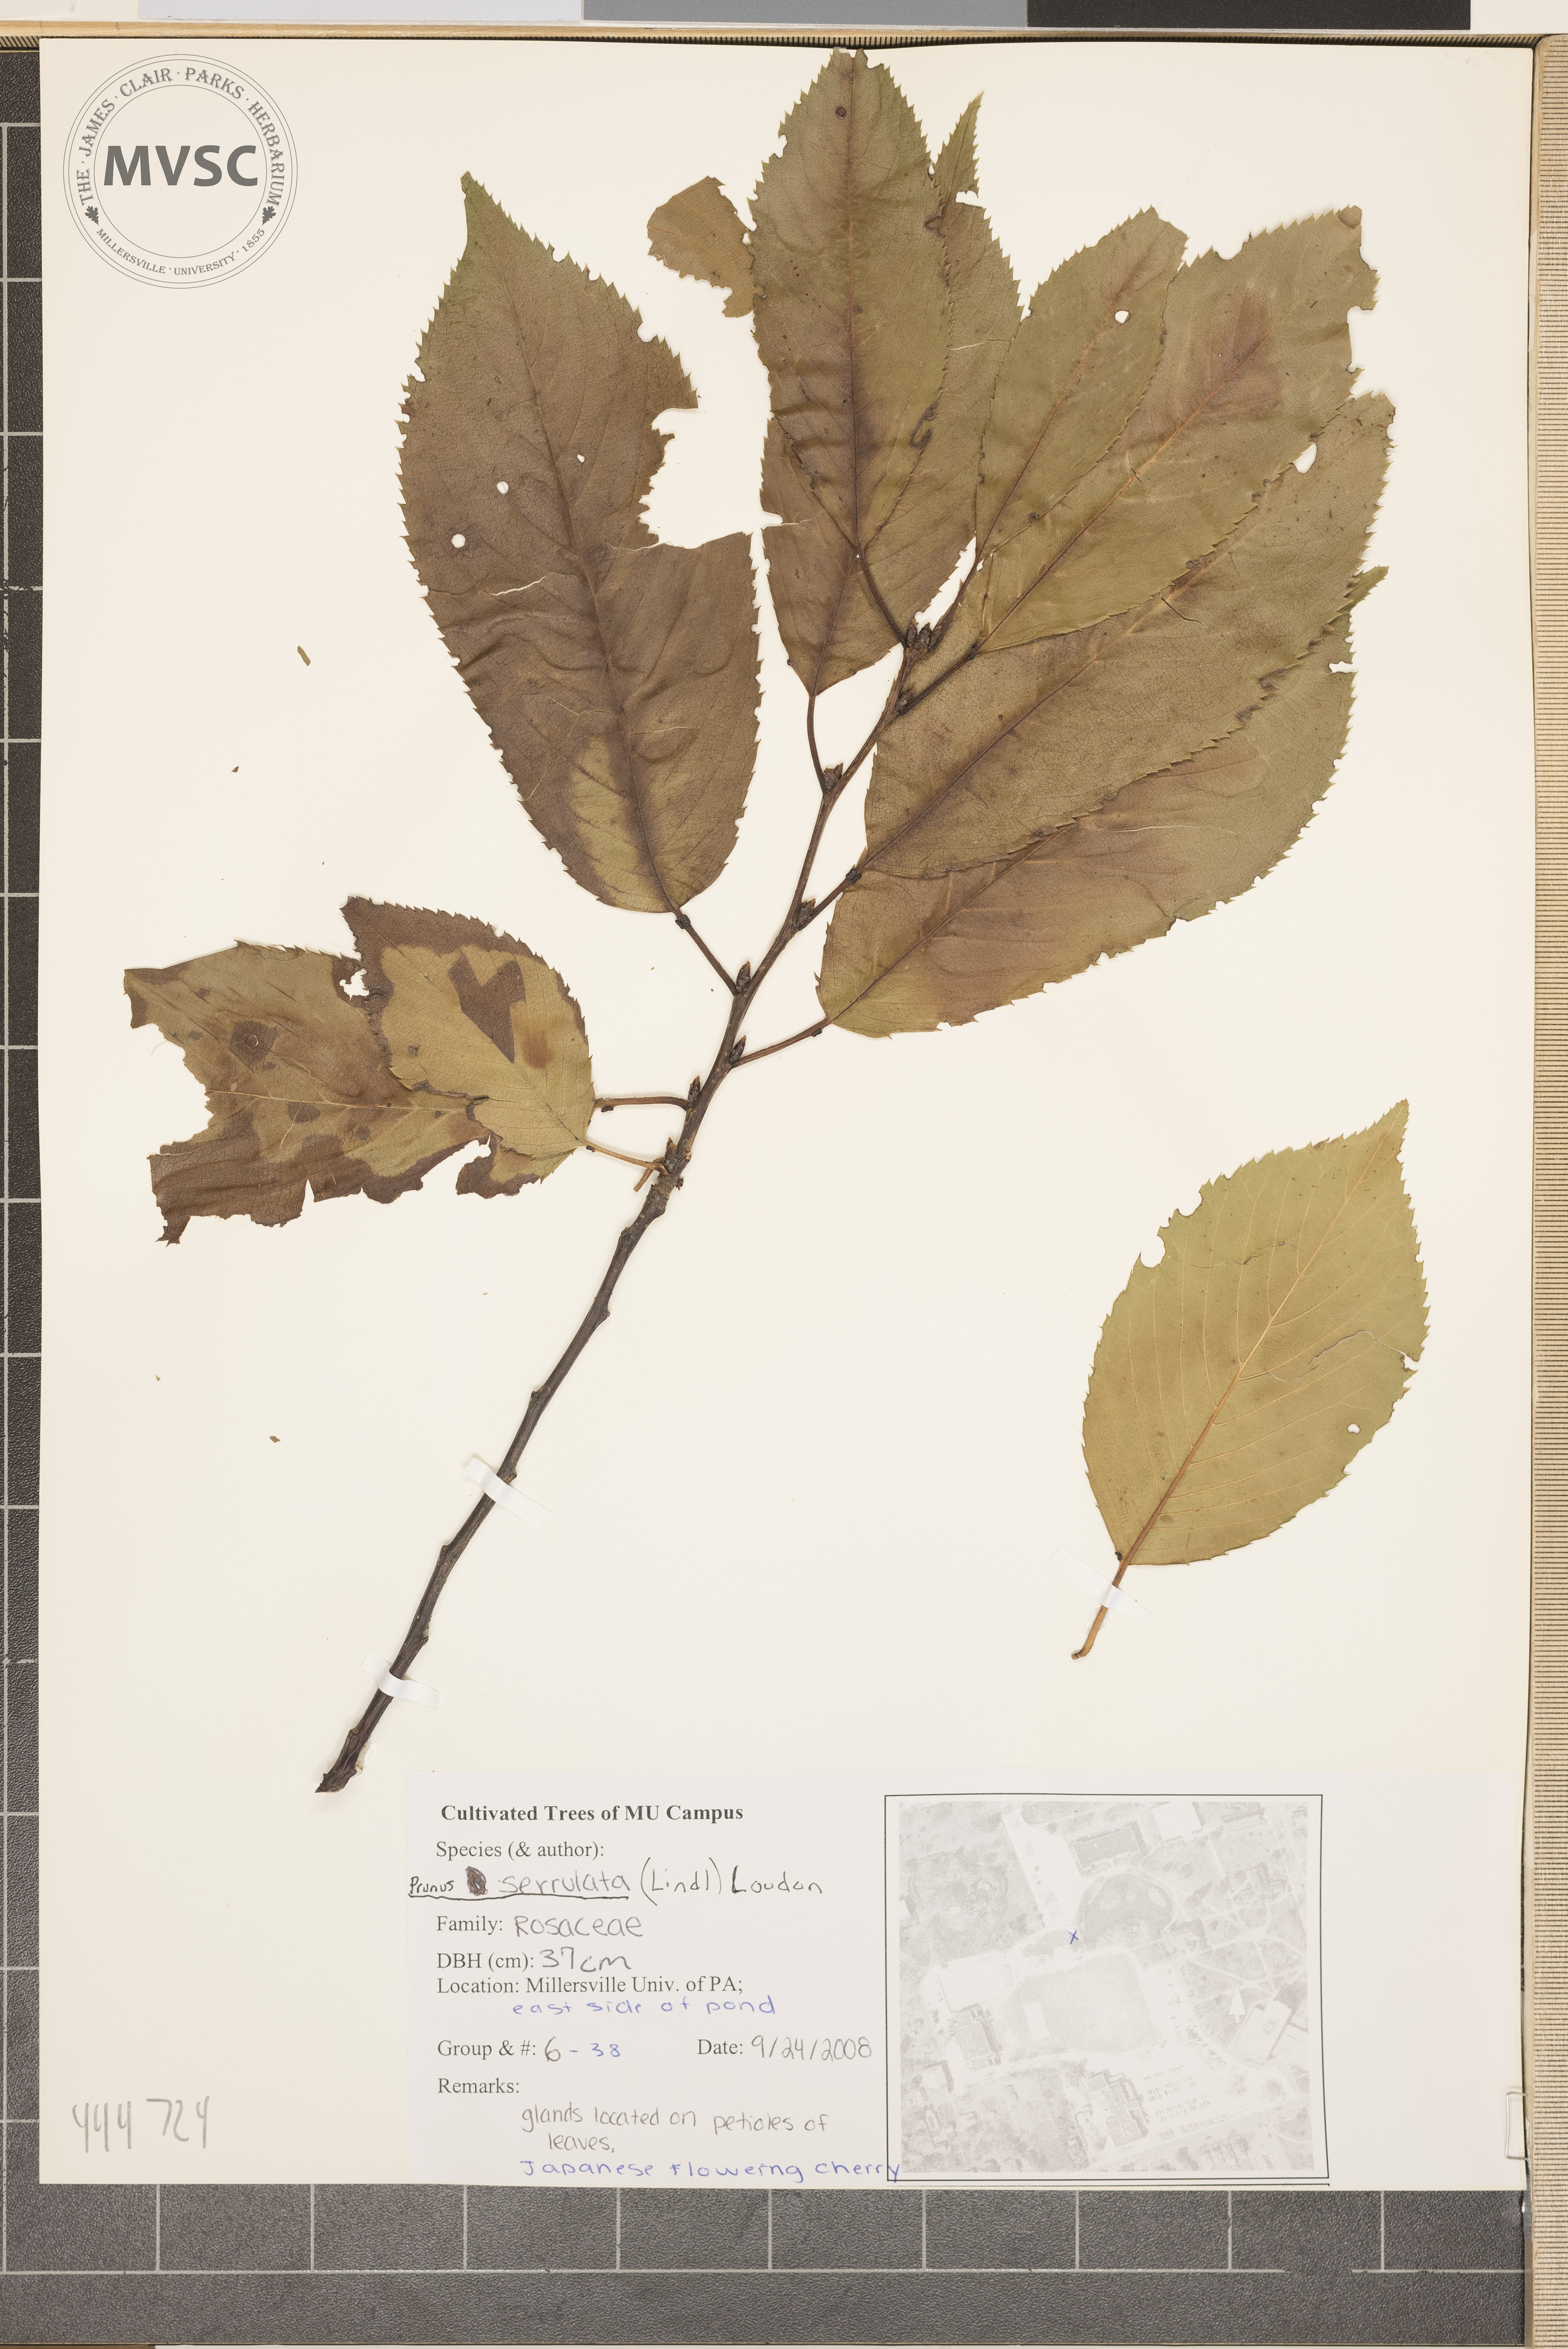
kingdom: Plantae
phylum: Tracheophyta
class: Magnoliopsida
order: Rosales
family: Rosaceae
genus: Prunus
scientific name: Prunus serrulata
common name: Japanese flowering cherry
